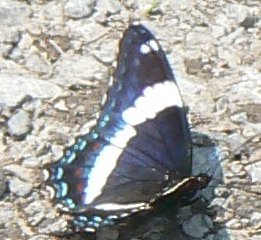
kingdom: Animalia
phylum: Arthropoda
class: Insecta
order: Lepidoptera
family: Nymphalidae
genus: Limenitis
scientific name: Limenitis arthemis
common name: Red-spotted Admiral
